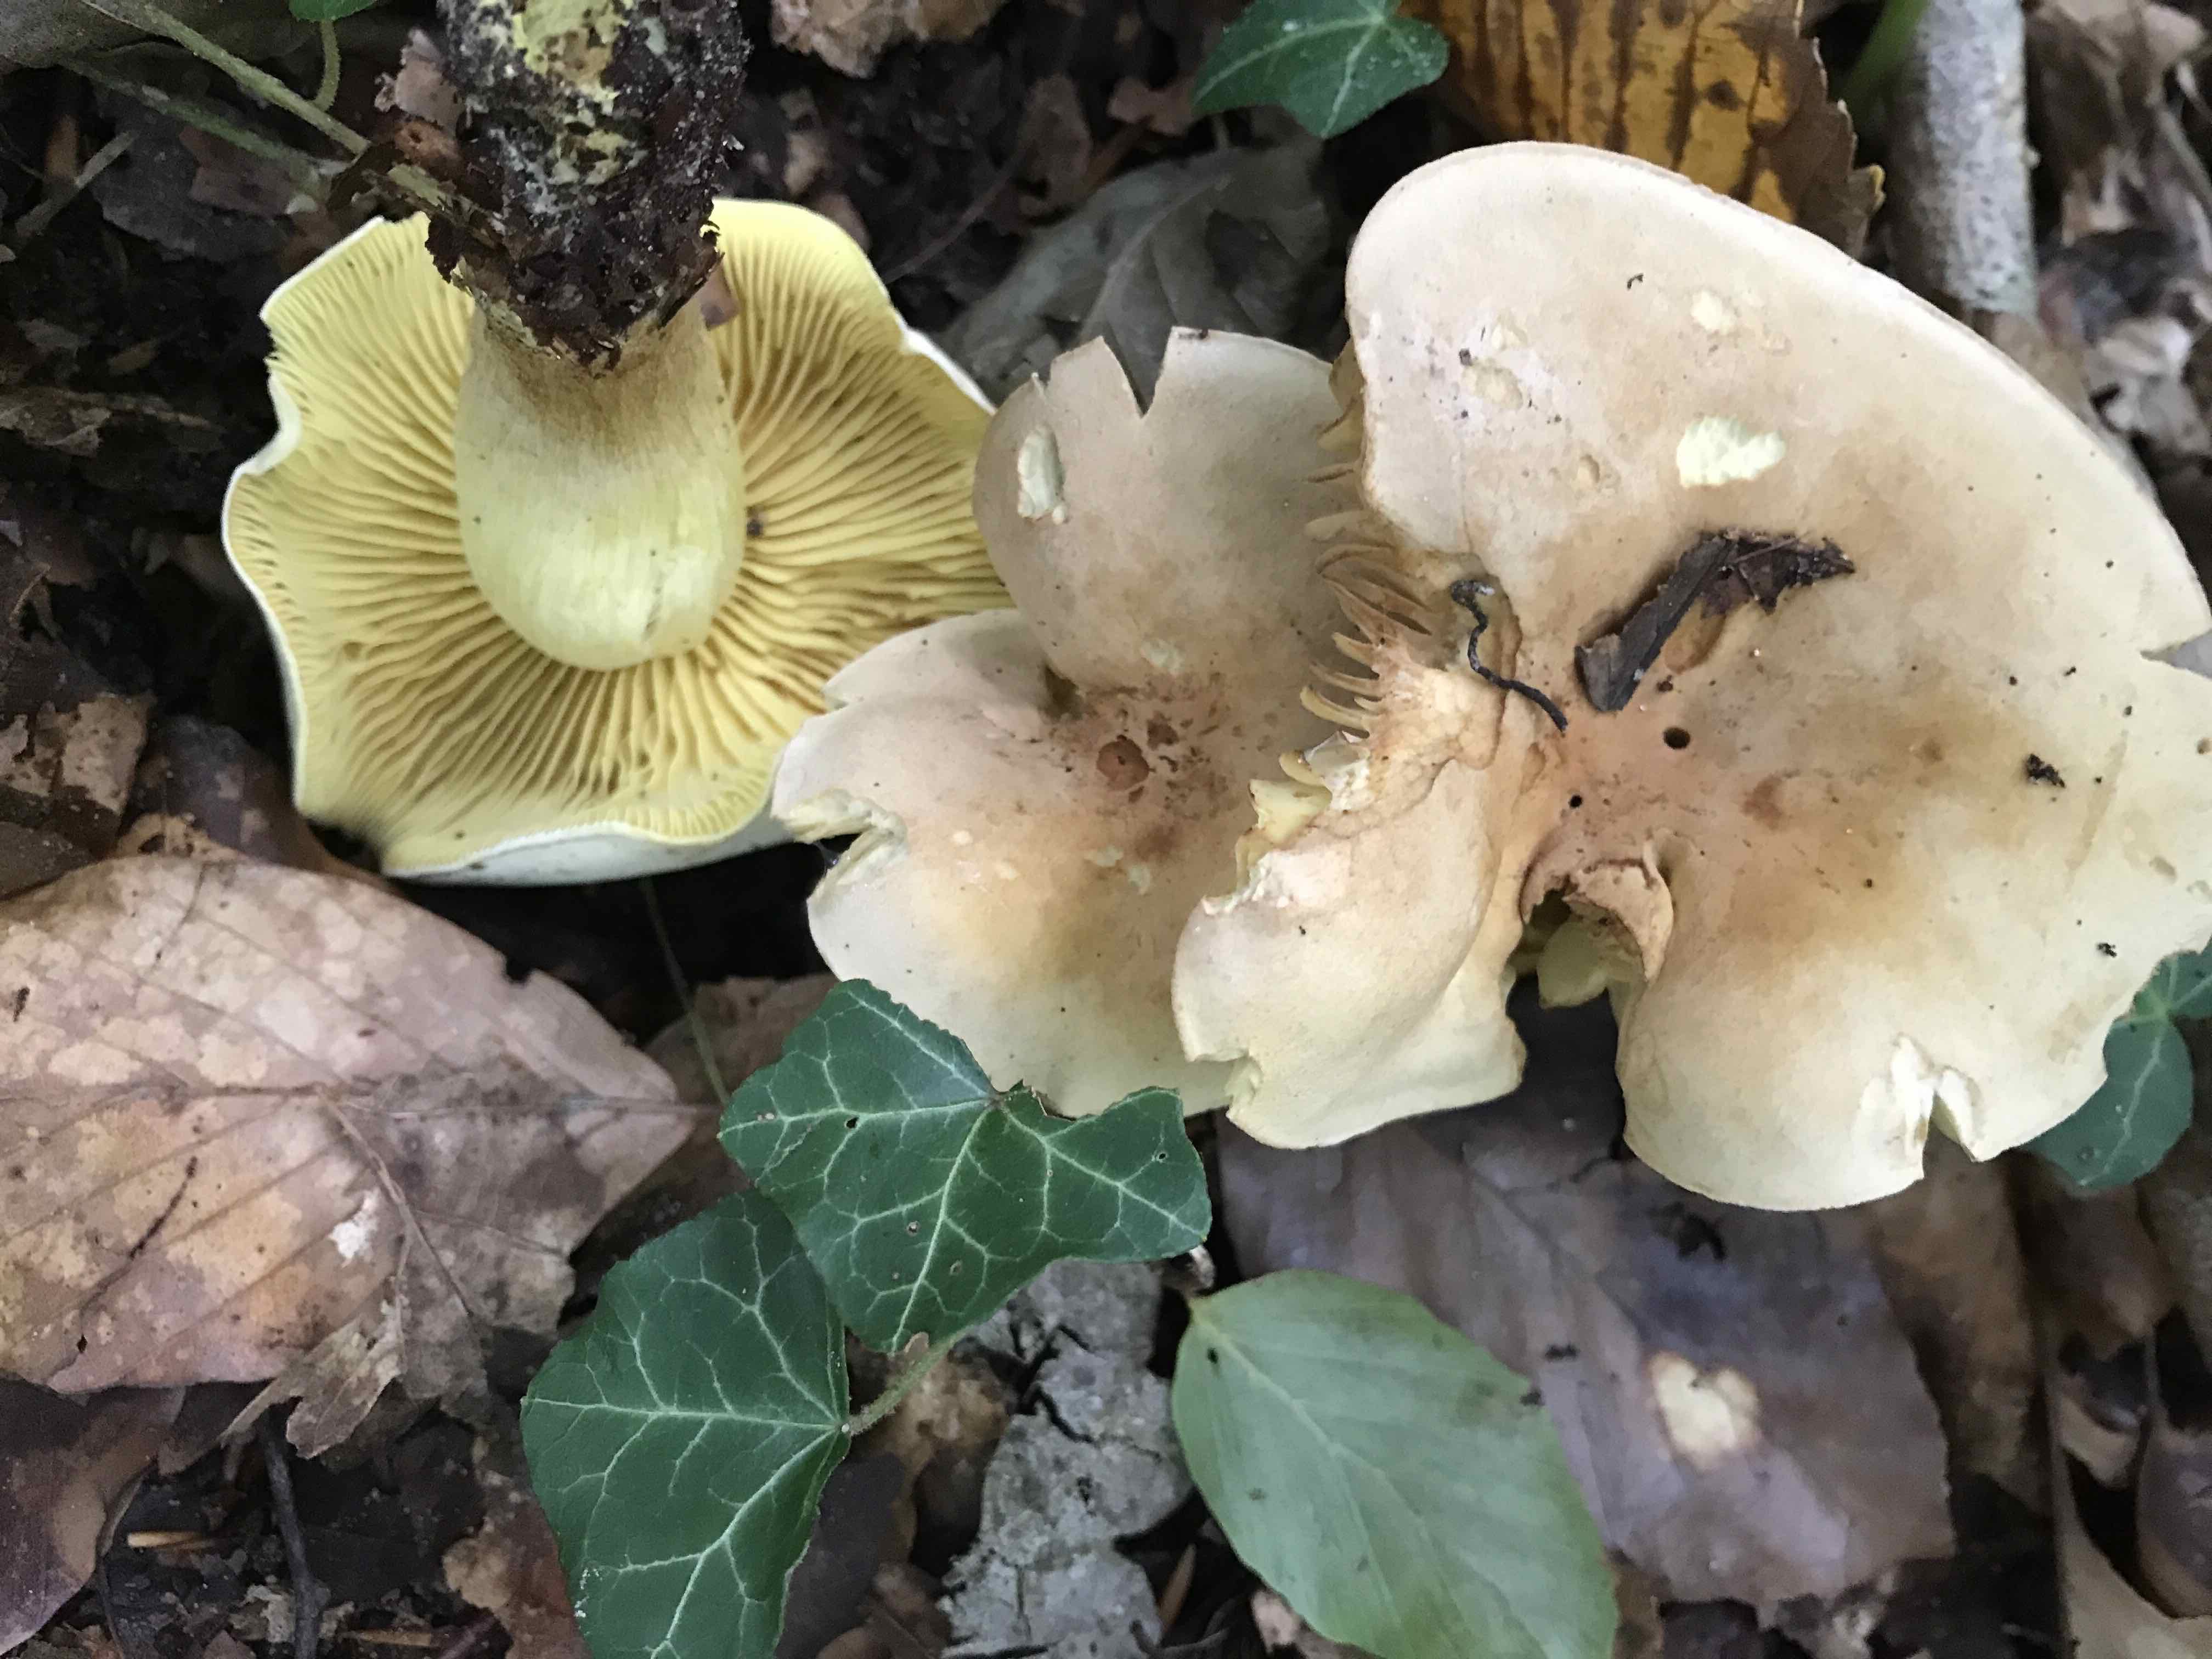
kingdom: Fungi
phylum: Basidiomycota
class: Agaricomycetes
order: Agaricales
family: Tricholomataceae
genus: Tricholoma
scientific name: Tricholoma sulphureum
